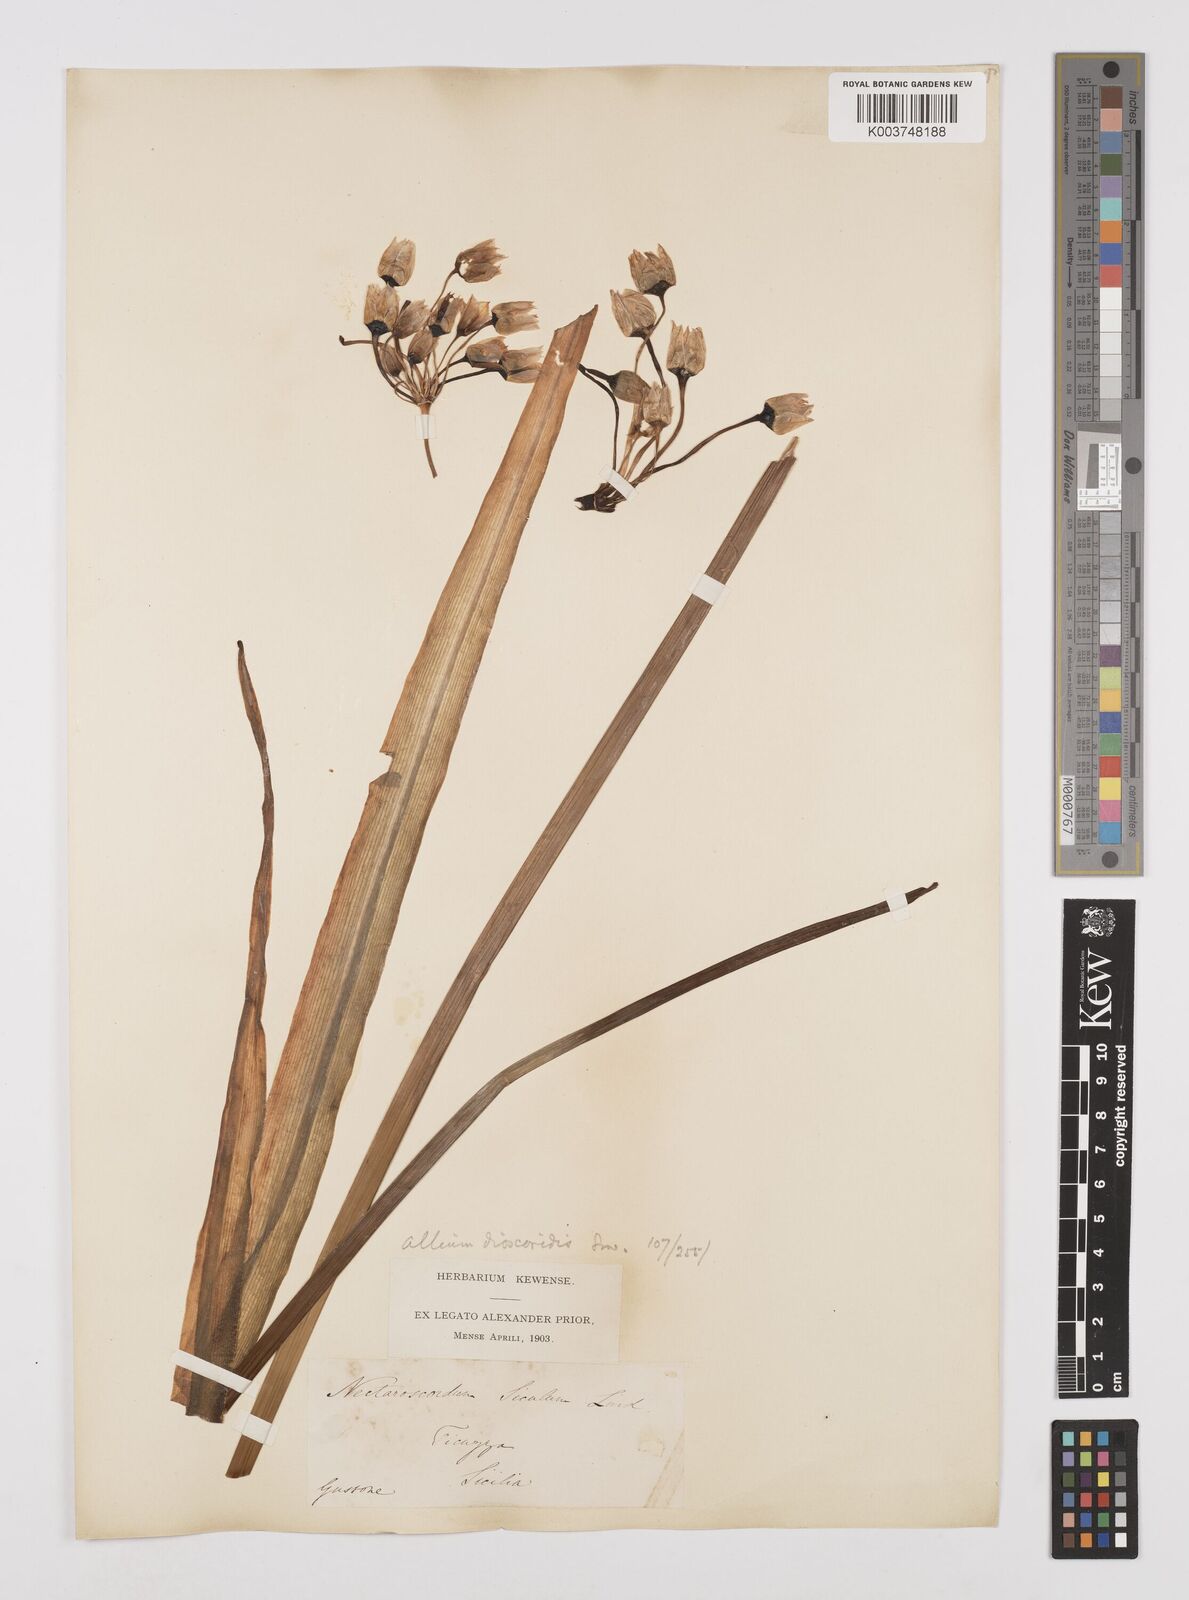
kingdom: Plantae
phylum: Tracheophyta
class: Liliopsida
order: Asparagales
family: Amaryllidaceae
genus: Allium
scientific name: Allium siculum
